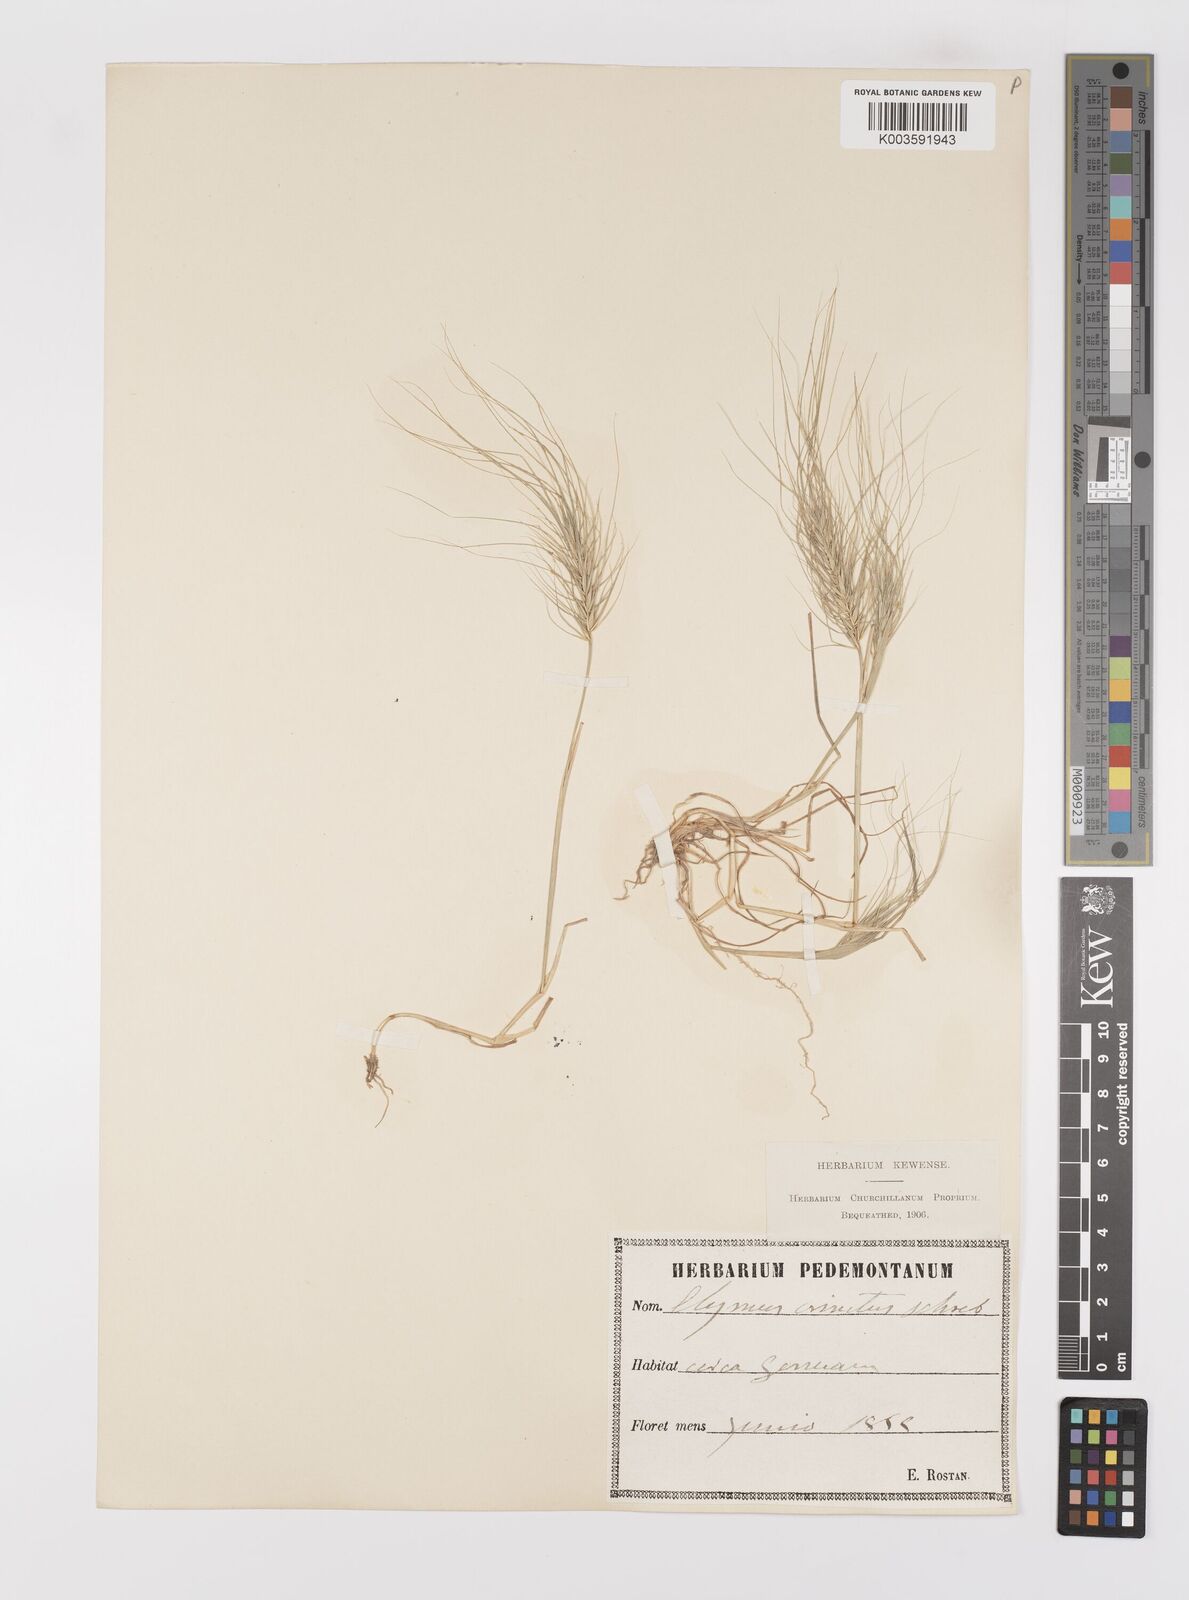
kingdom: Plantae
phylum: Tracheophyta
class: Liliopsida
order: Poales
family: Poaceae
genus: Taeniatherum
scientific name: Taeniatherum caput-medusae
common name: Medusahead
